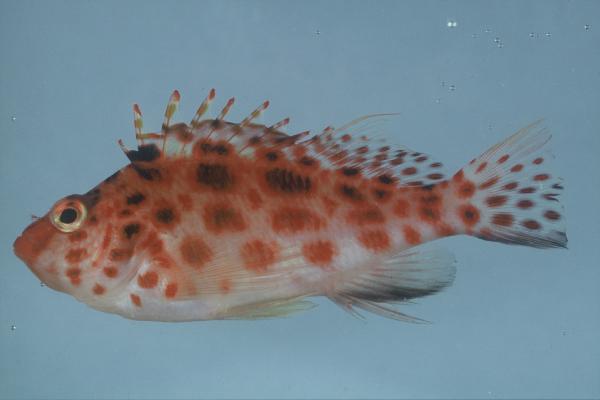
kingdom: Animalia
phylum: Chordata
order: Perciformes
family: Cirrhitidae
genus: Cirrhitichthys
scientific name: Cirrhitichthys oxycephalus
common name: Spotted hawkfish
